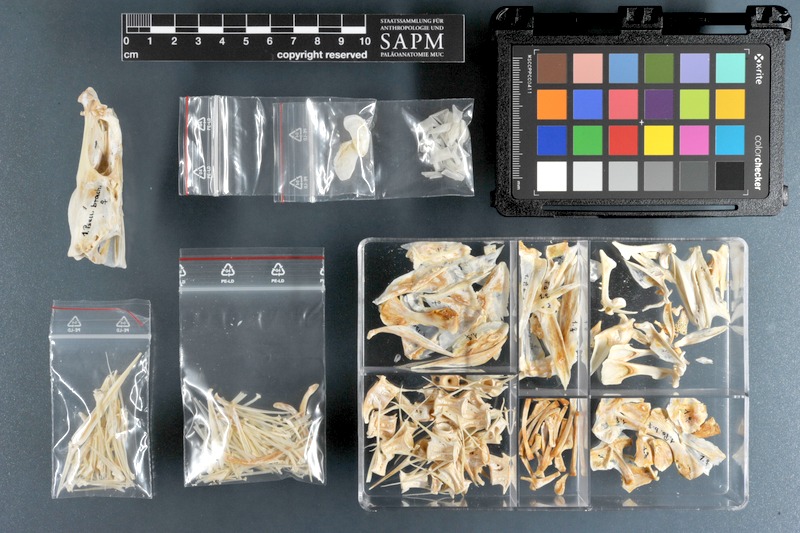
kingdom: Animalia
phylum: Chordata
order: Perciformes
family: Sciaenidae
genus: Pseudotolithus
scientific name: Pseudotolithus senegallus
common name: Law croaker
